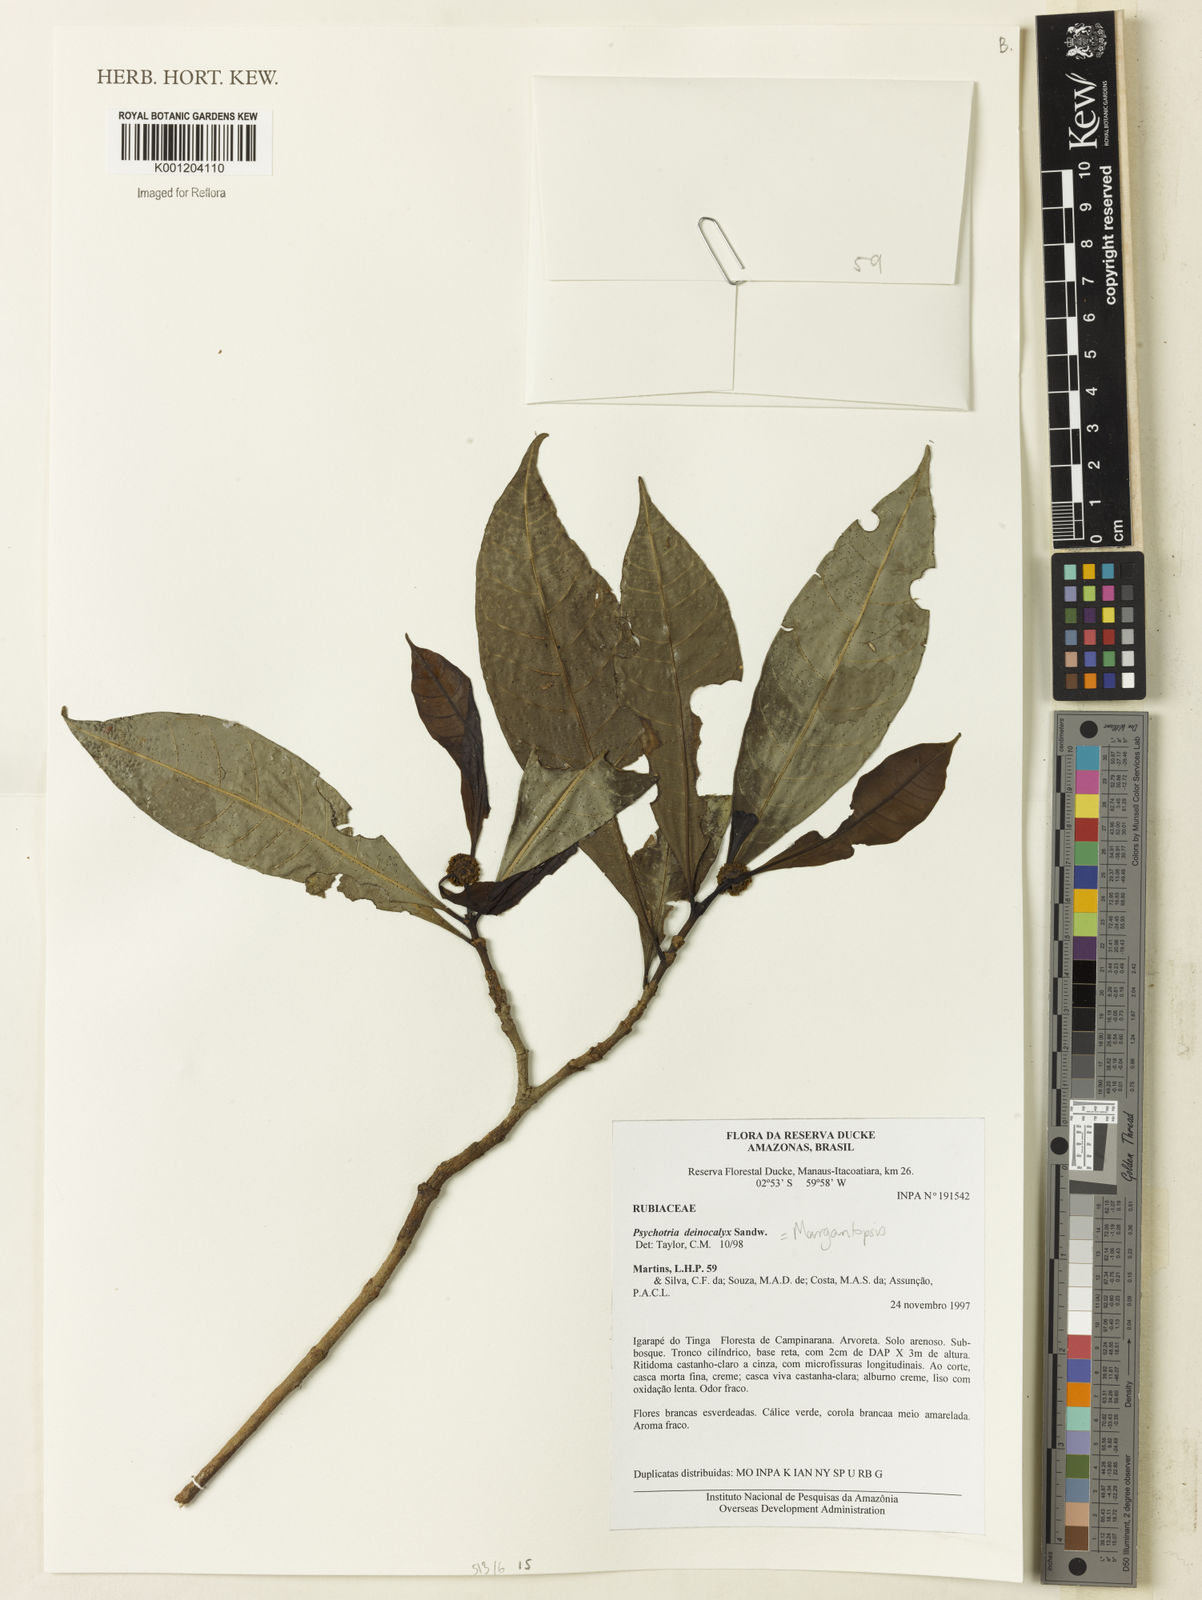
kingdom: Plantae
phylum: Tracheophyta
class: Magnoliopsida
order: Gentianales
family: Rubiaceae
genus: Eumachia
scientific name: Eumachia deinocalyx
